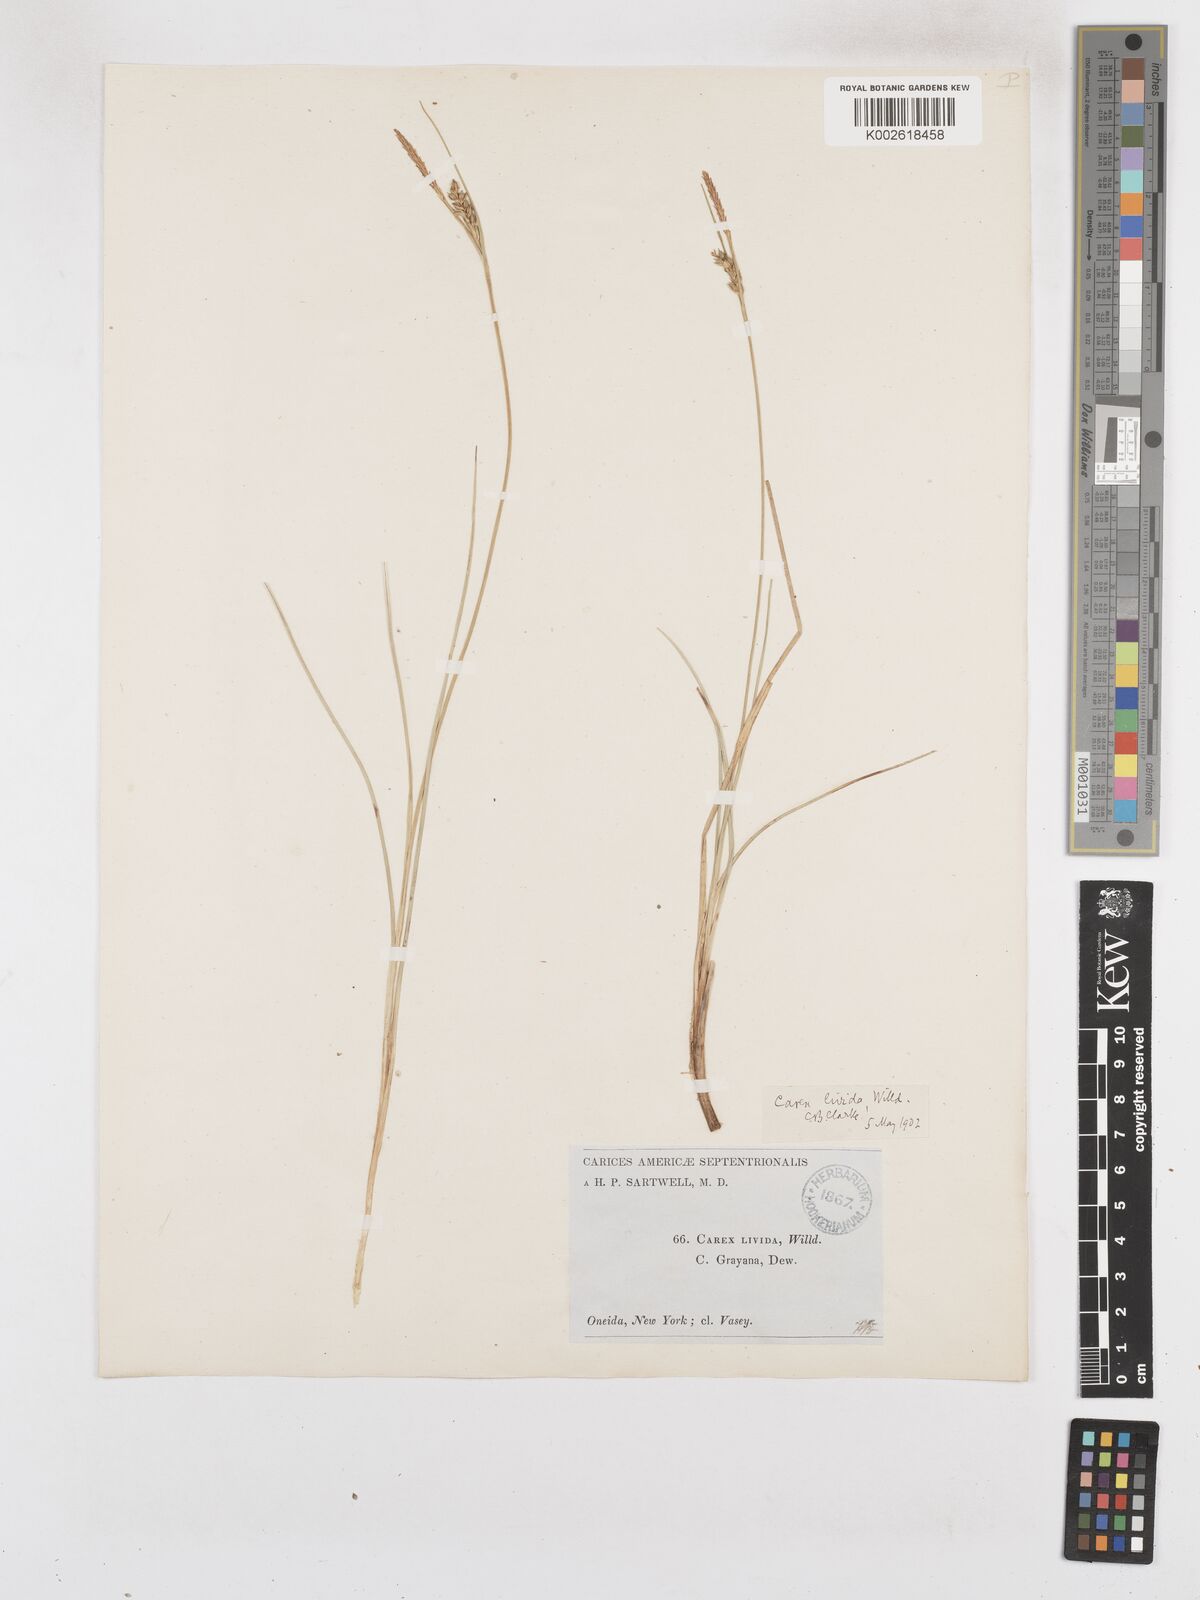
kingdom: Plantae
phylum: Tracheophyta
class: Liliopsida
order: Poales
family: Cyperaceae
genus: Carex
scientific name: Carex livida
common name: Livid sedge
